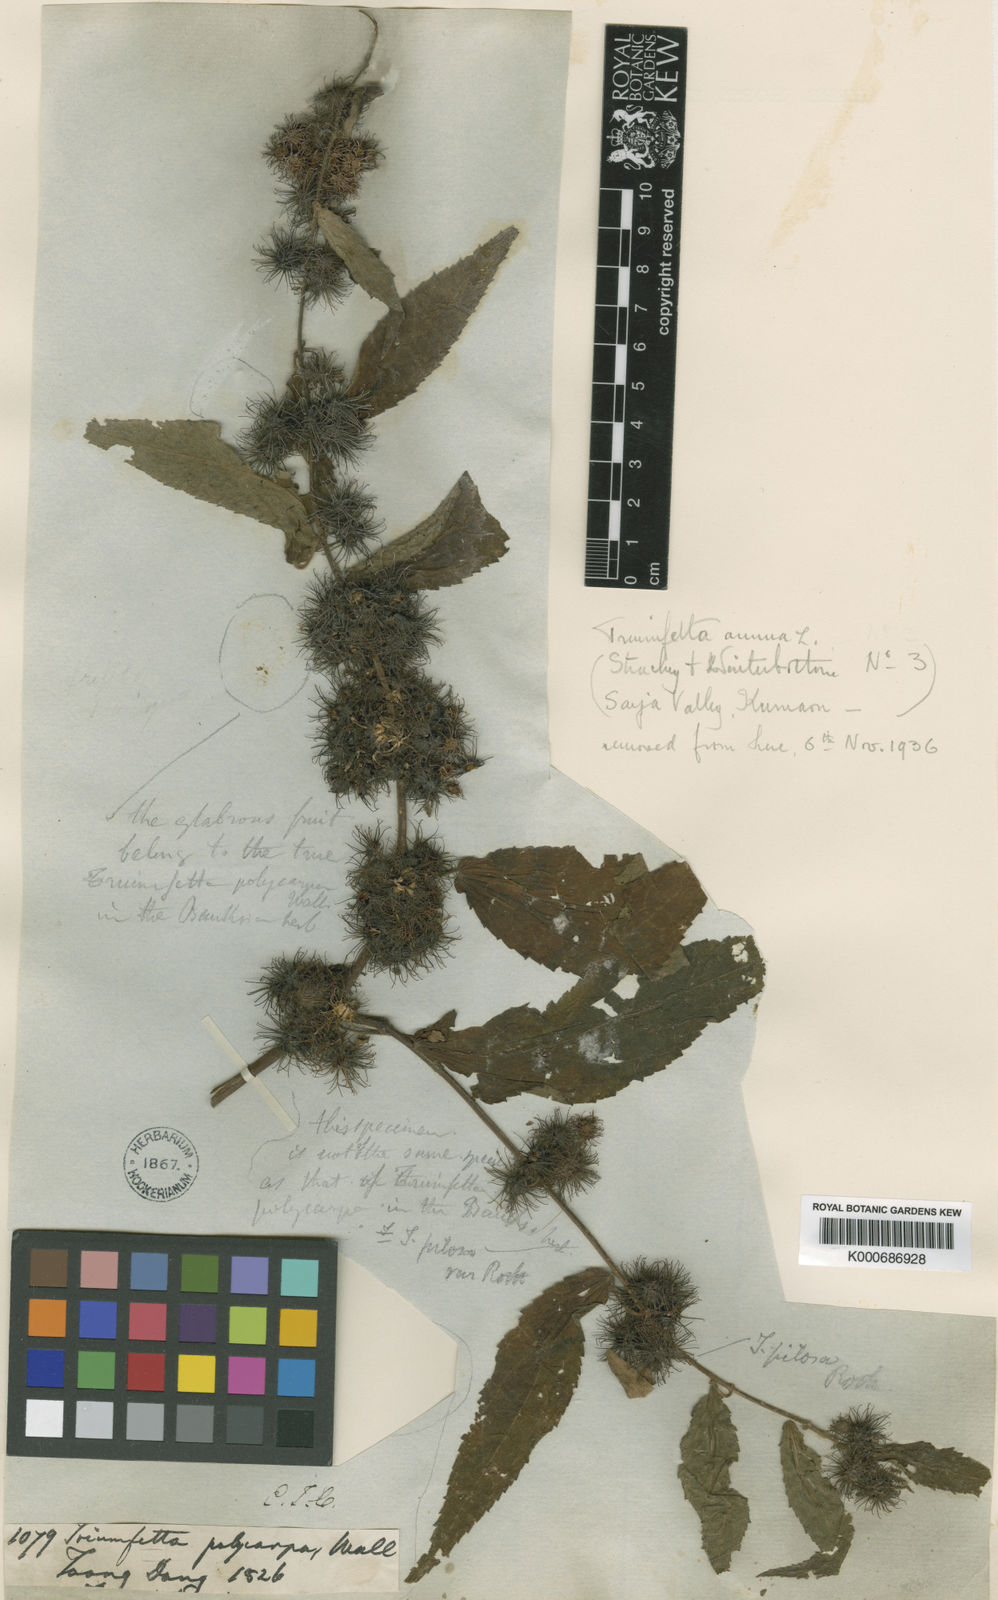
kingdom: Plantae
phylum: Tracheophyta
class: Magnoliopsida
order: Malvales
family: Malvaceae
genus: Triumfetta
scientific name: Triumfetta pilosa
